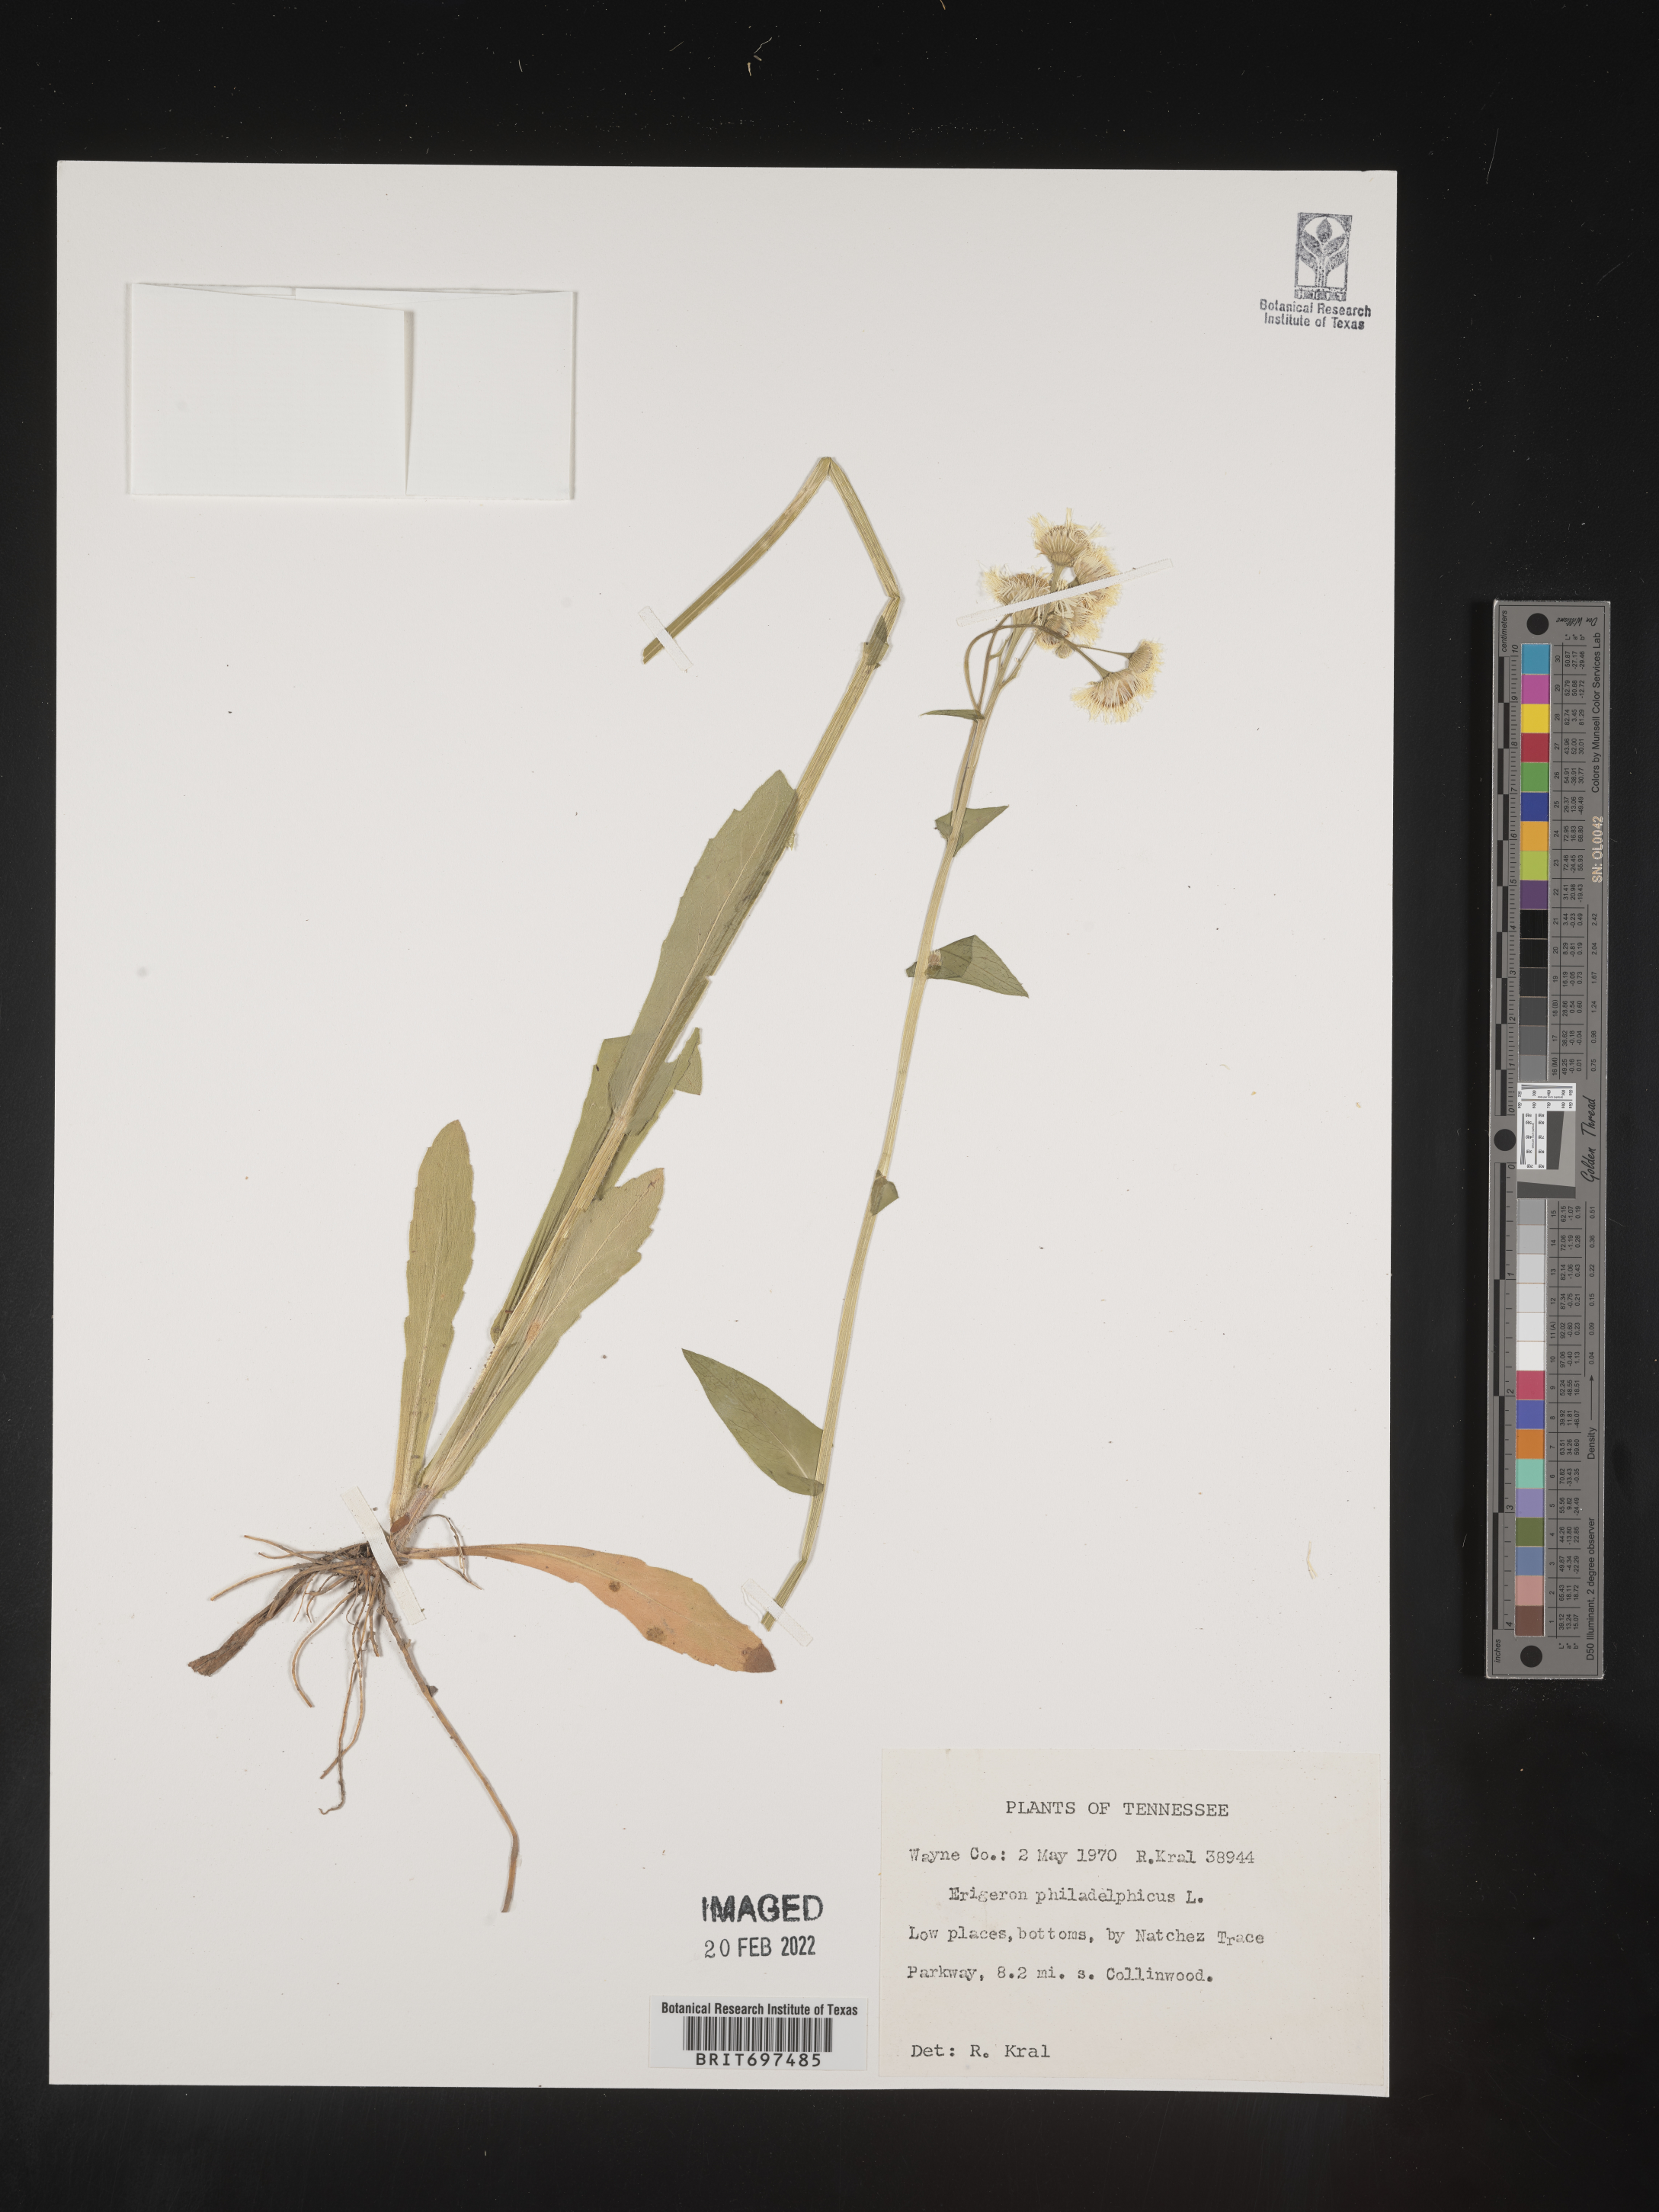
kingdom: Plantae
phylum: Tracheophyta
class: Magnoliopsida
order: Asterales
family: Asteraceae
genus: Erigeron
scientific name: Erigeron philadelphicus
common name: Robin's-plantain
